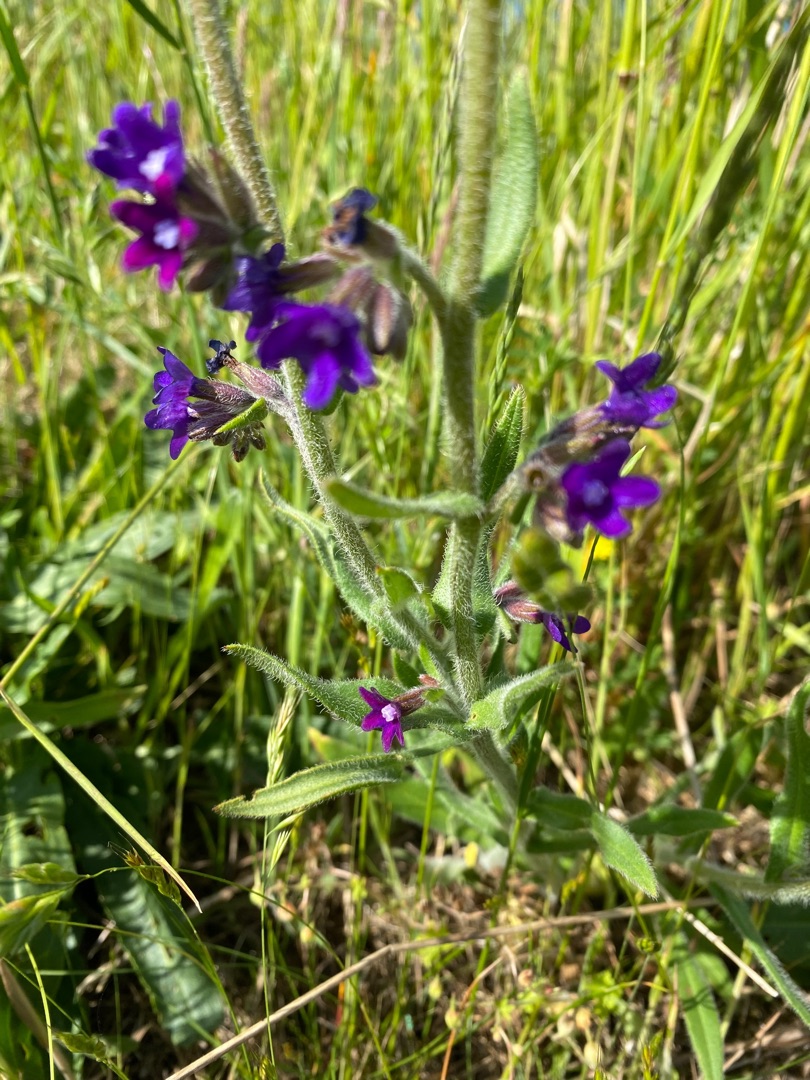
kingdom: Plantae
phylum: Tracheophyta
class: Magnoliopsida
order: Boraginales
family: Boraginaceae
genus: Anchusa
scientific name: Anchusa officinalis
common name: Læge-oksetunge
